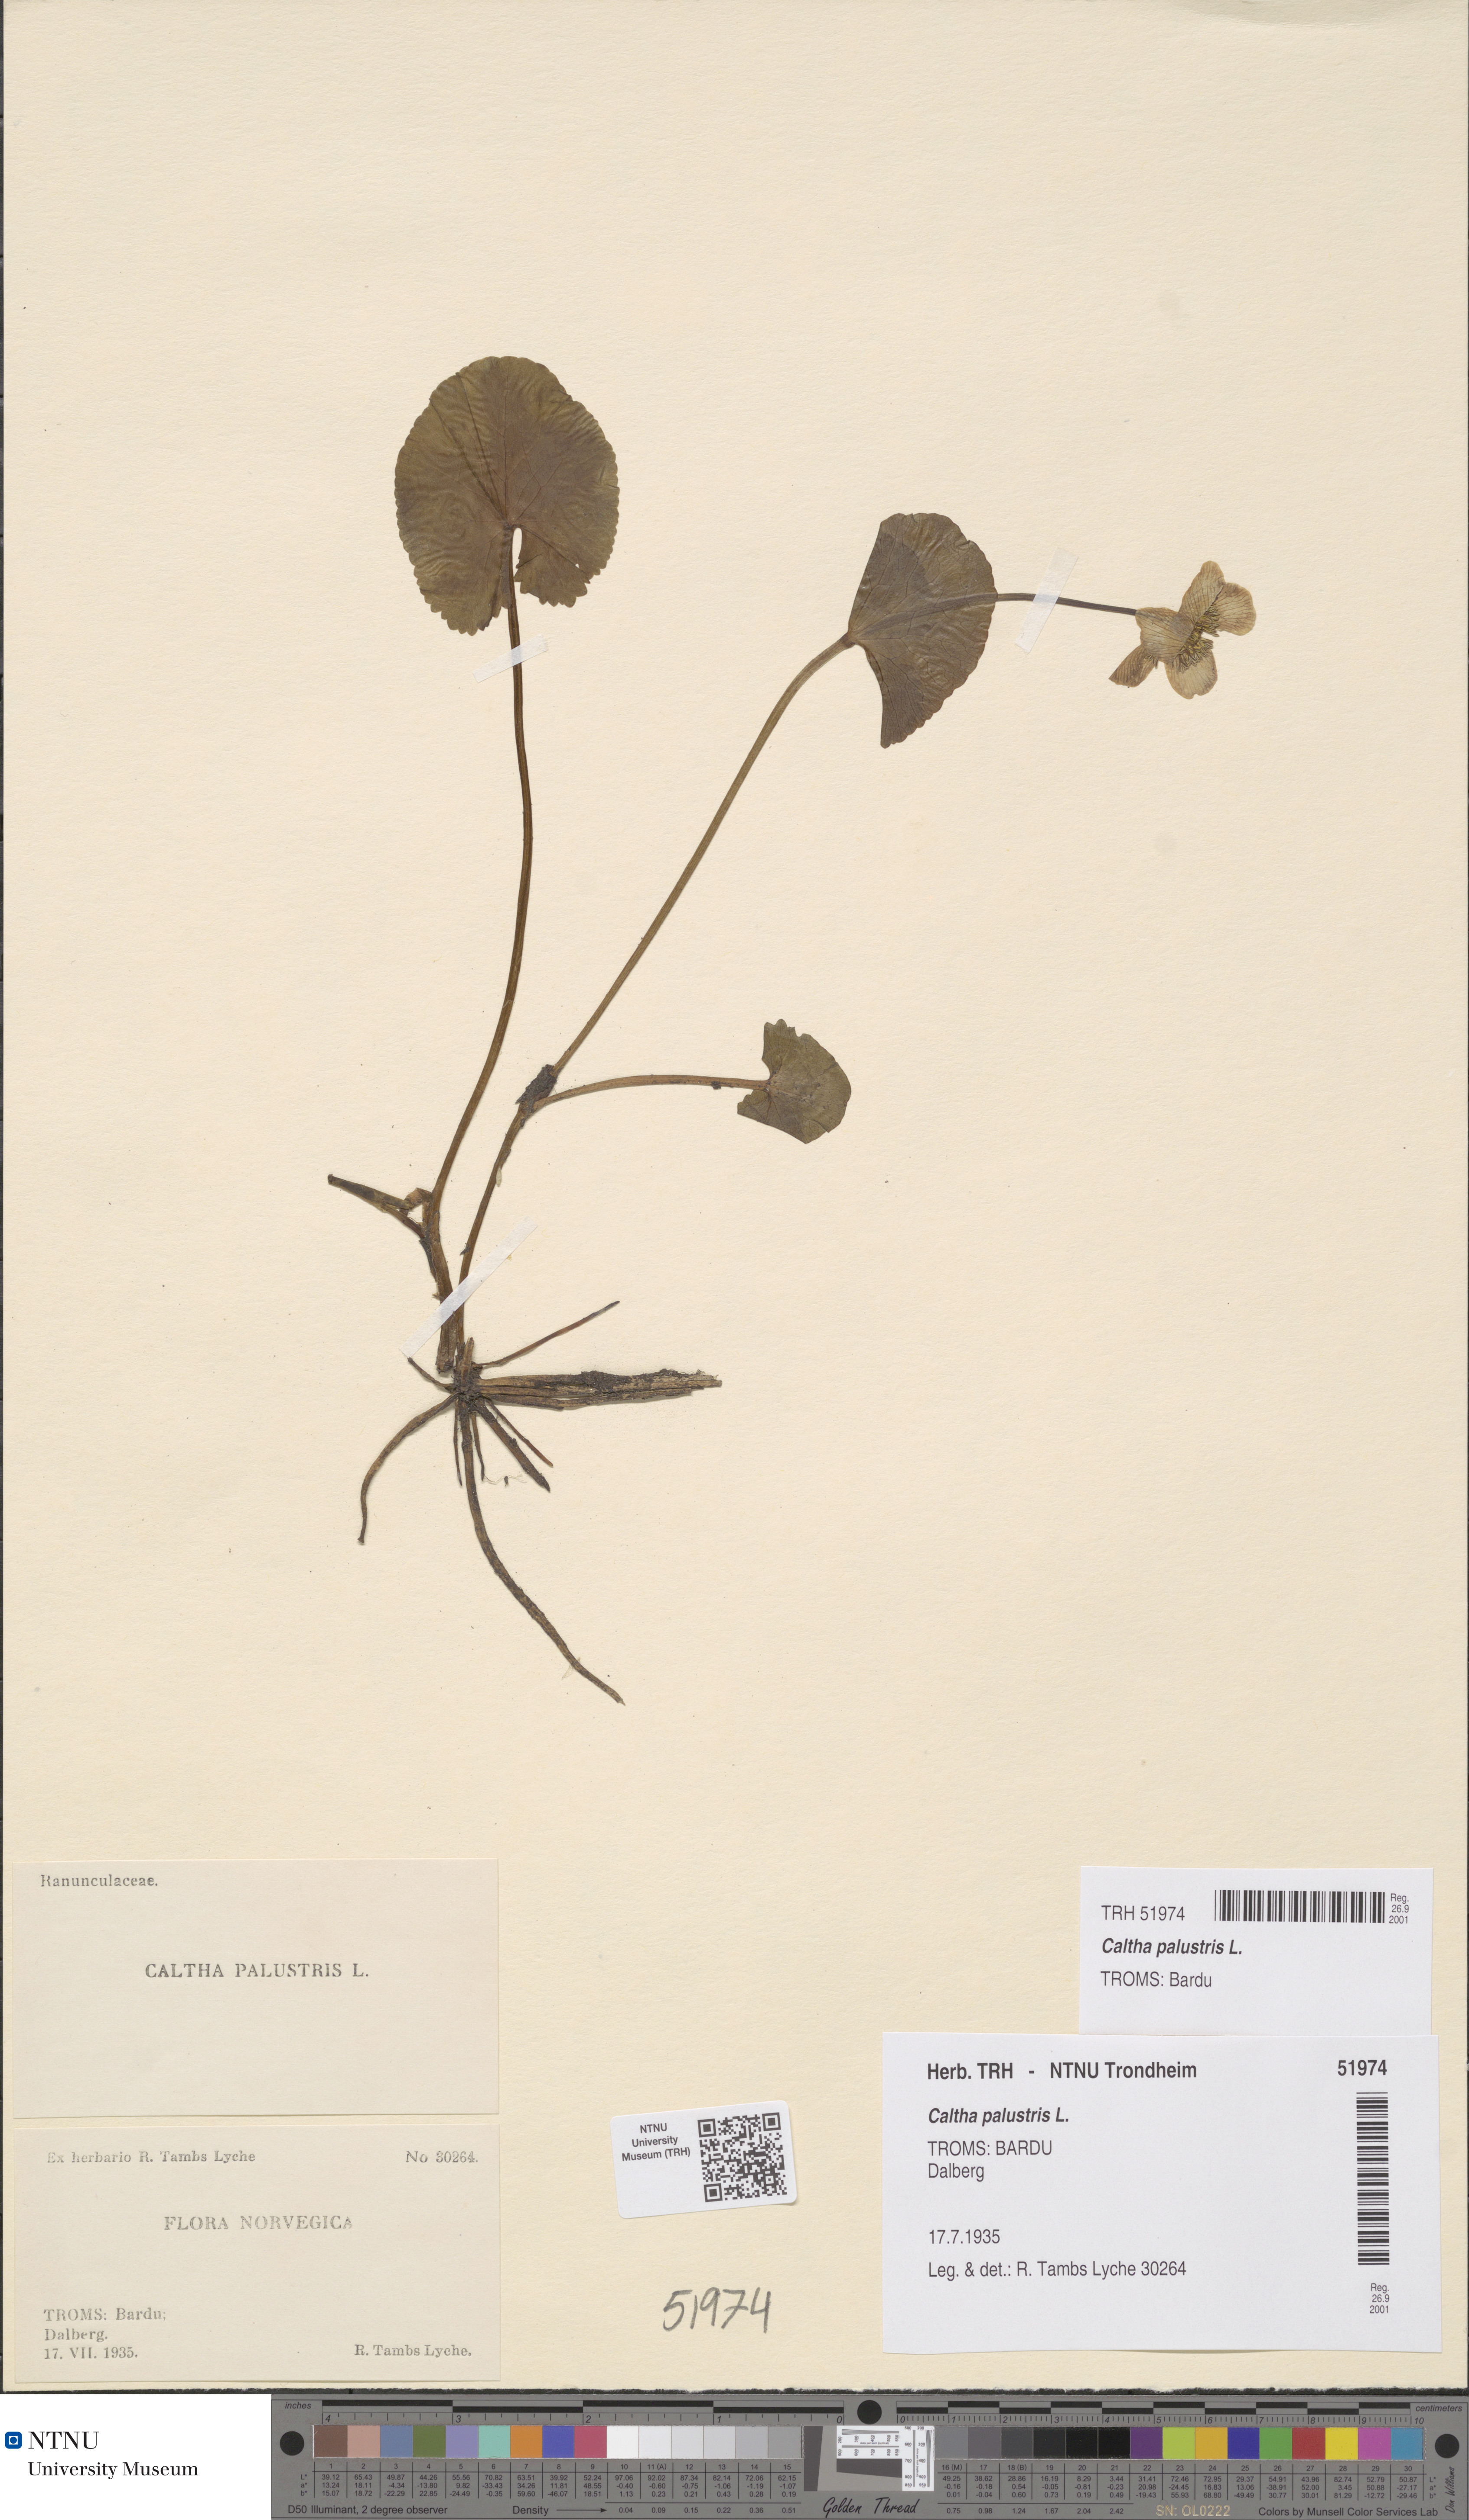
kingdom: Plantae
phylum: Tracheophyta
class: Magnoliopsida
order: Ranunculales
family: Ranunculaceae
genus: Caltha
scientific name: Caltha palustris
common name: Marsh marigold
